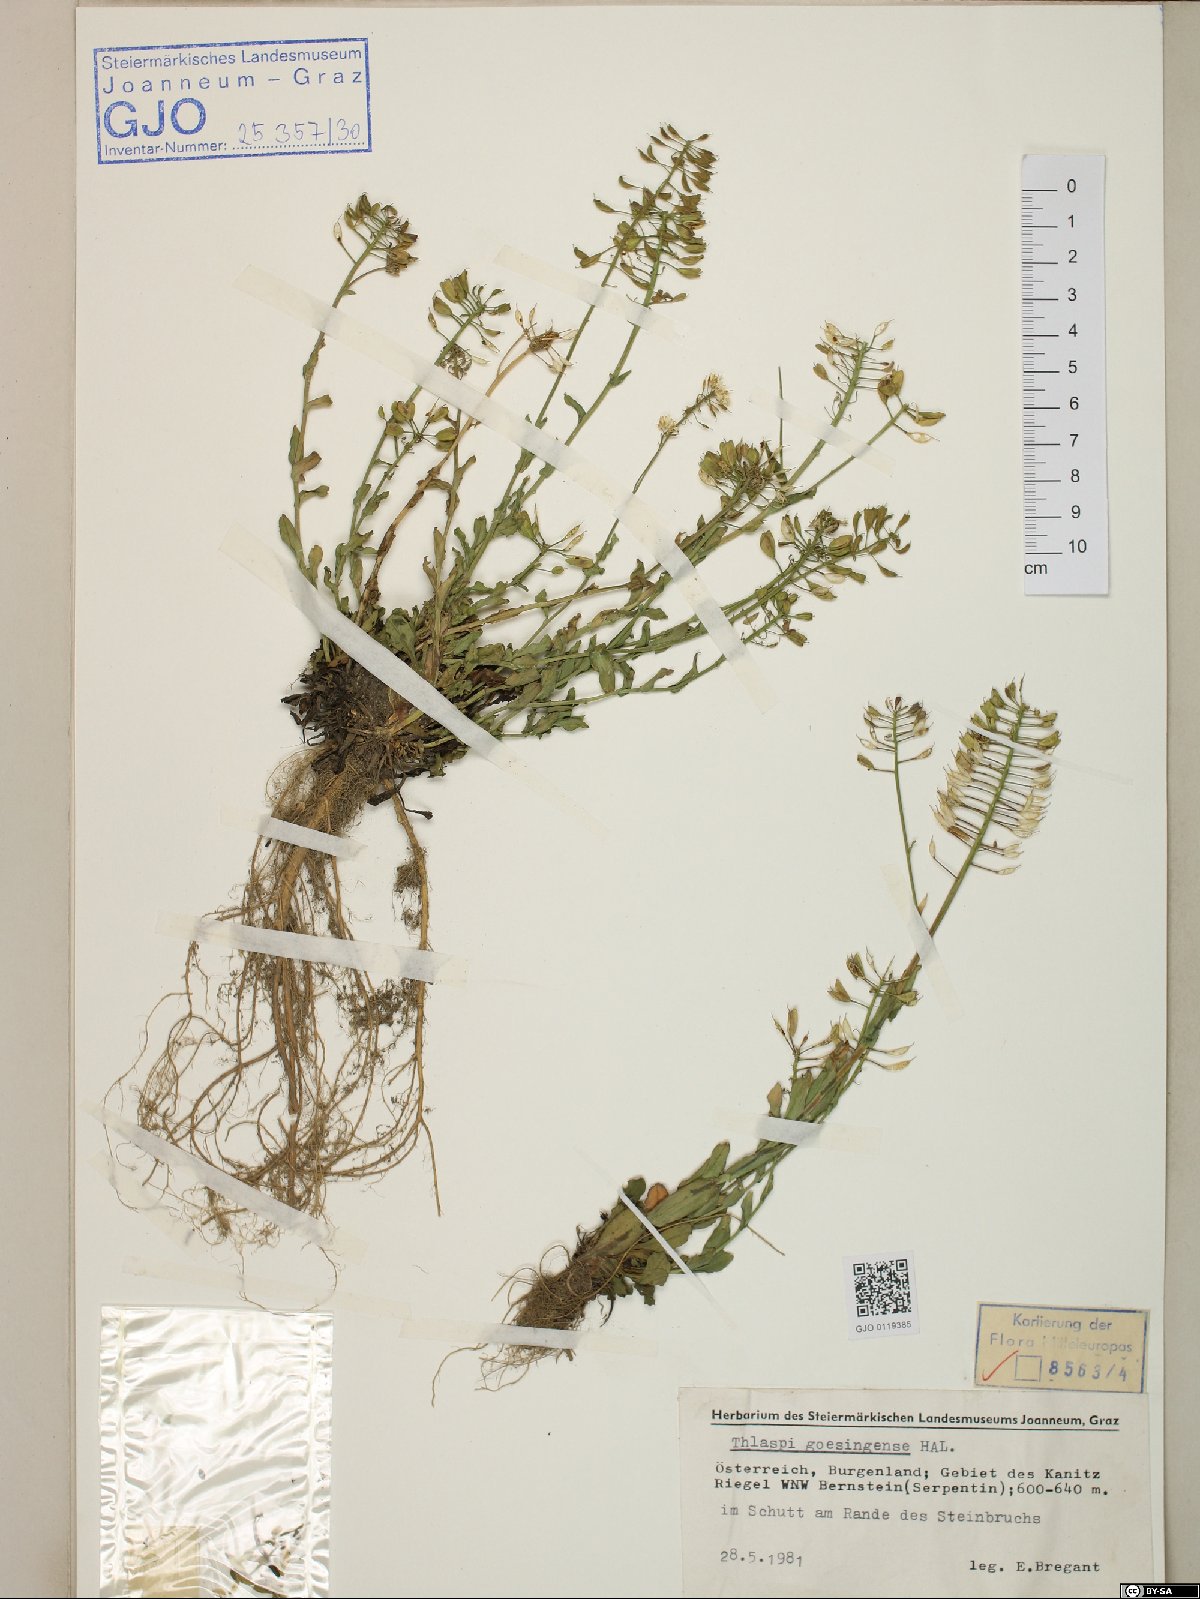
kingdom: Plantae
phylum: Tracheophyta
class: Magnoliopsida
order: Brassicales
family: Brassicaceae
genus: Noccaea
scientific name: Noccaea goesingensis
